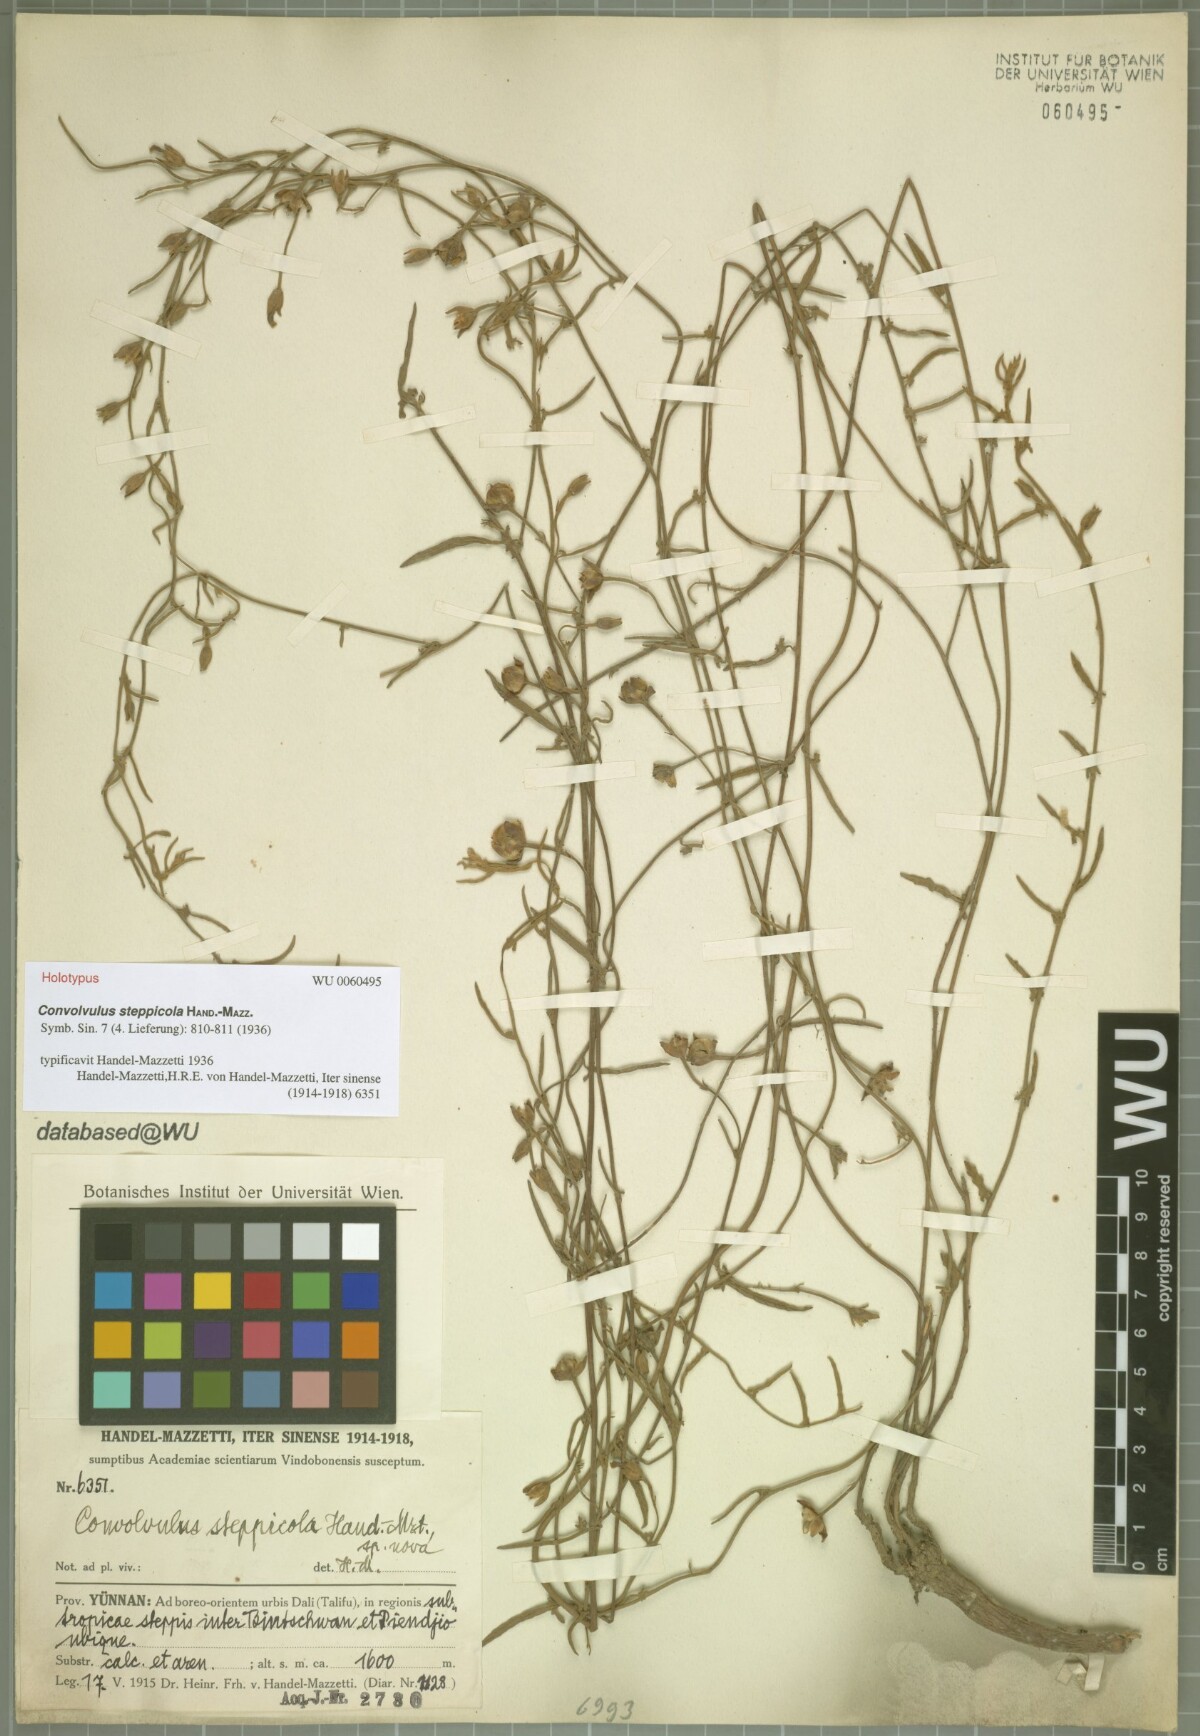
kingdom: Plantae
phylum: Tracheophyta
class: Magnoliopsida
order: Solanales
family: Convolvulaceae
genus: Convolvulus
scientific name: Convolvulus steppicola
